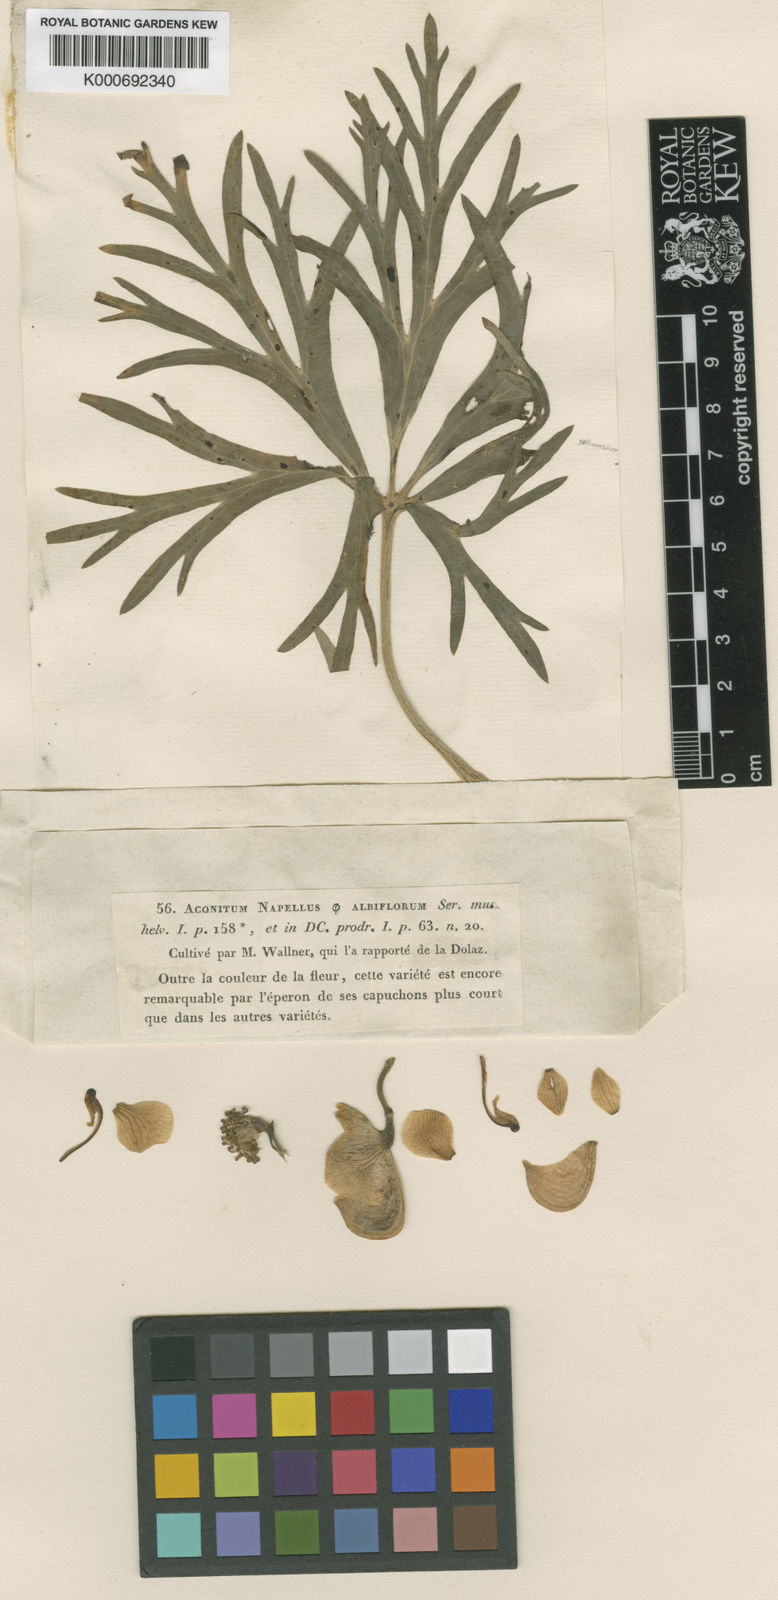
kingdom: Plantae
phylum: Tracheophyta
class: Magnoliopsida
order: Ranunculales
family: Ranunculaceae
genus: Aconitum
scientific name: Aconitum napellus
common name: Garden monkshood
